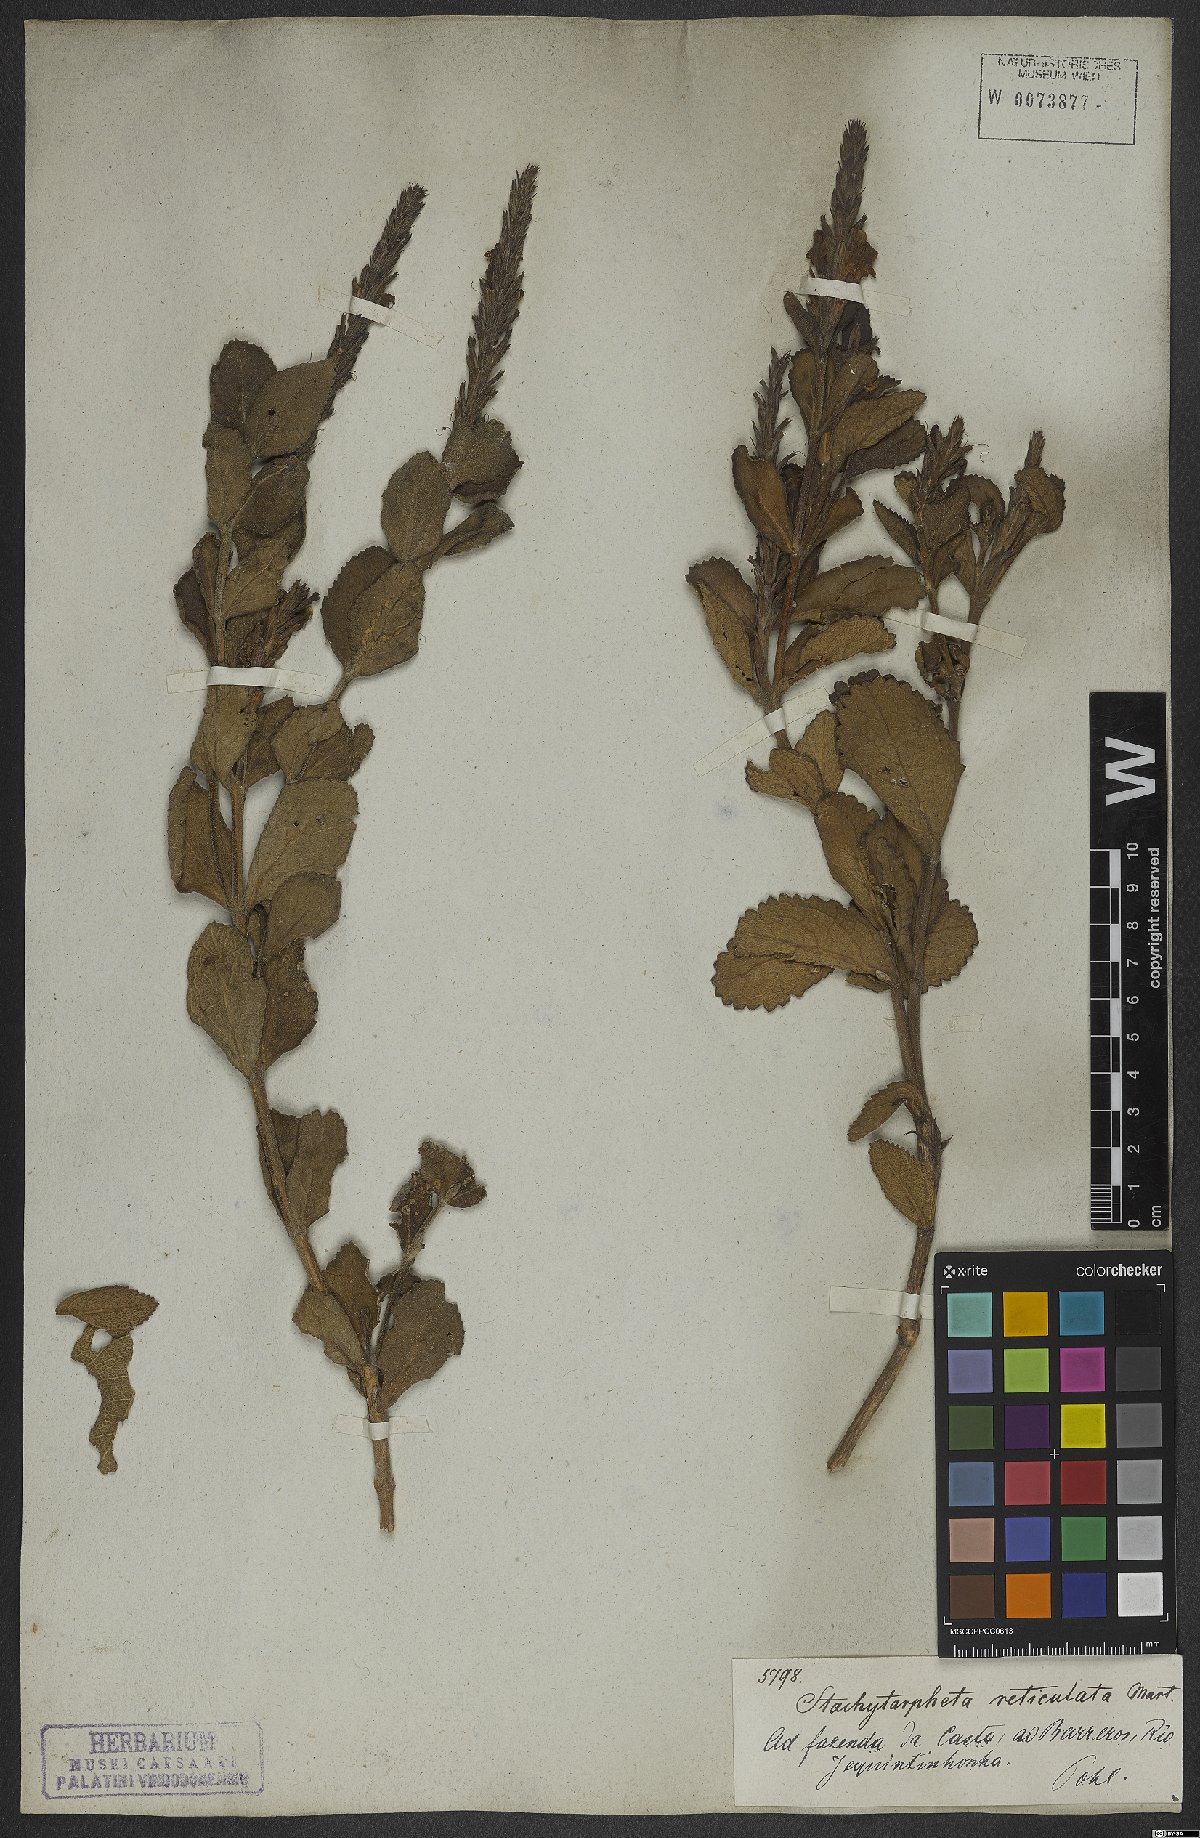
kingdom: Plantae
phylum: Tracheophyta
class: Magnoliopsida
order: Lamiales
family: Verbenaceae
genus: Stachytarpheta
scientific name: Stachytarpheta reticulata
